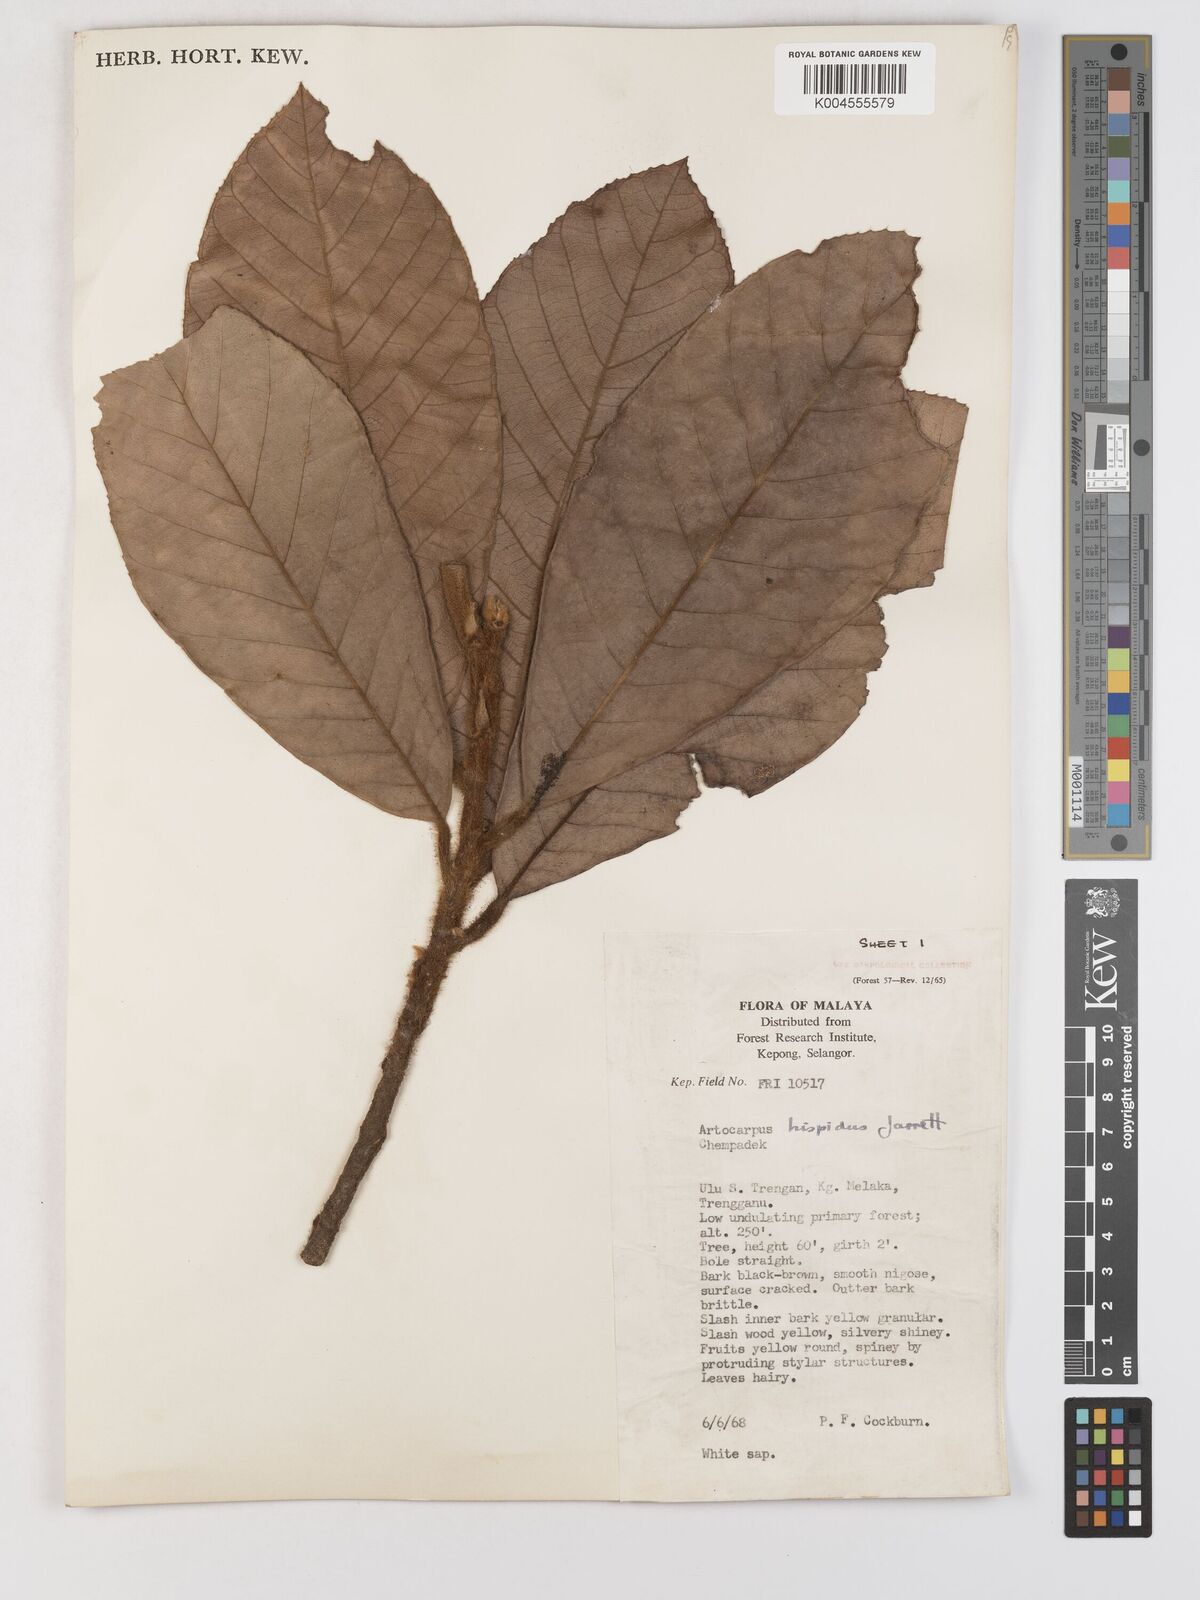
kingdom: Plantae
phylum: Tracheophyta
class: Magnoliopsida
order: Rosales
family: Moraceae
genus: Artocarpus
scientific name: Artocarpus hispidus
